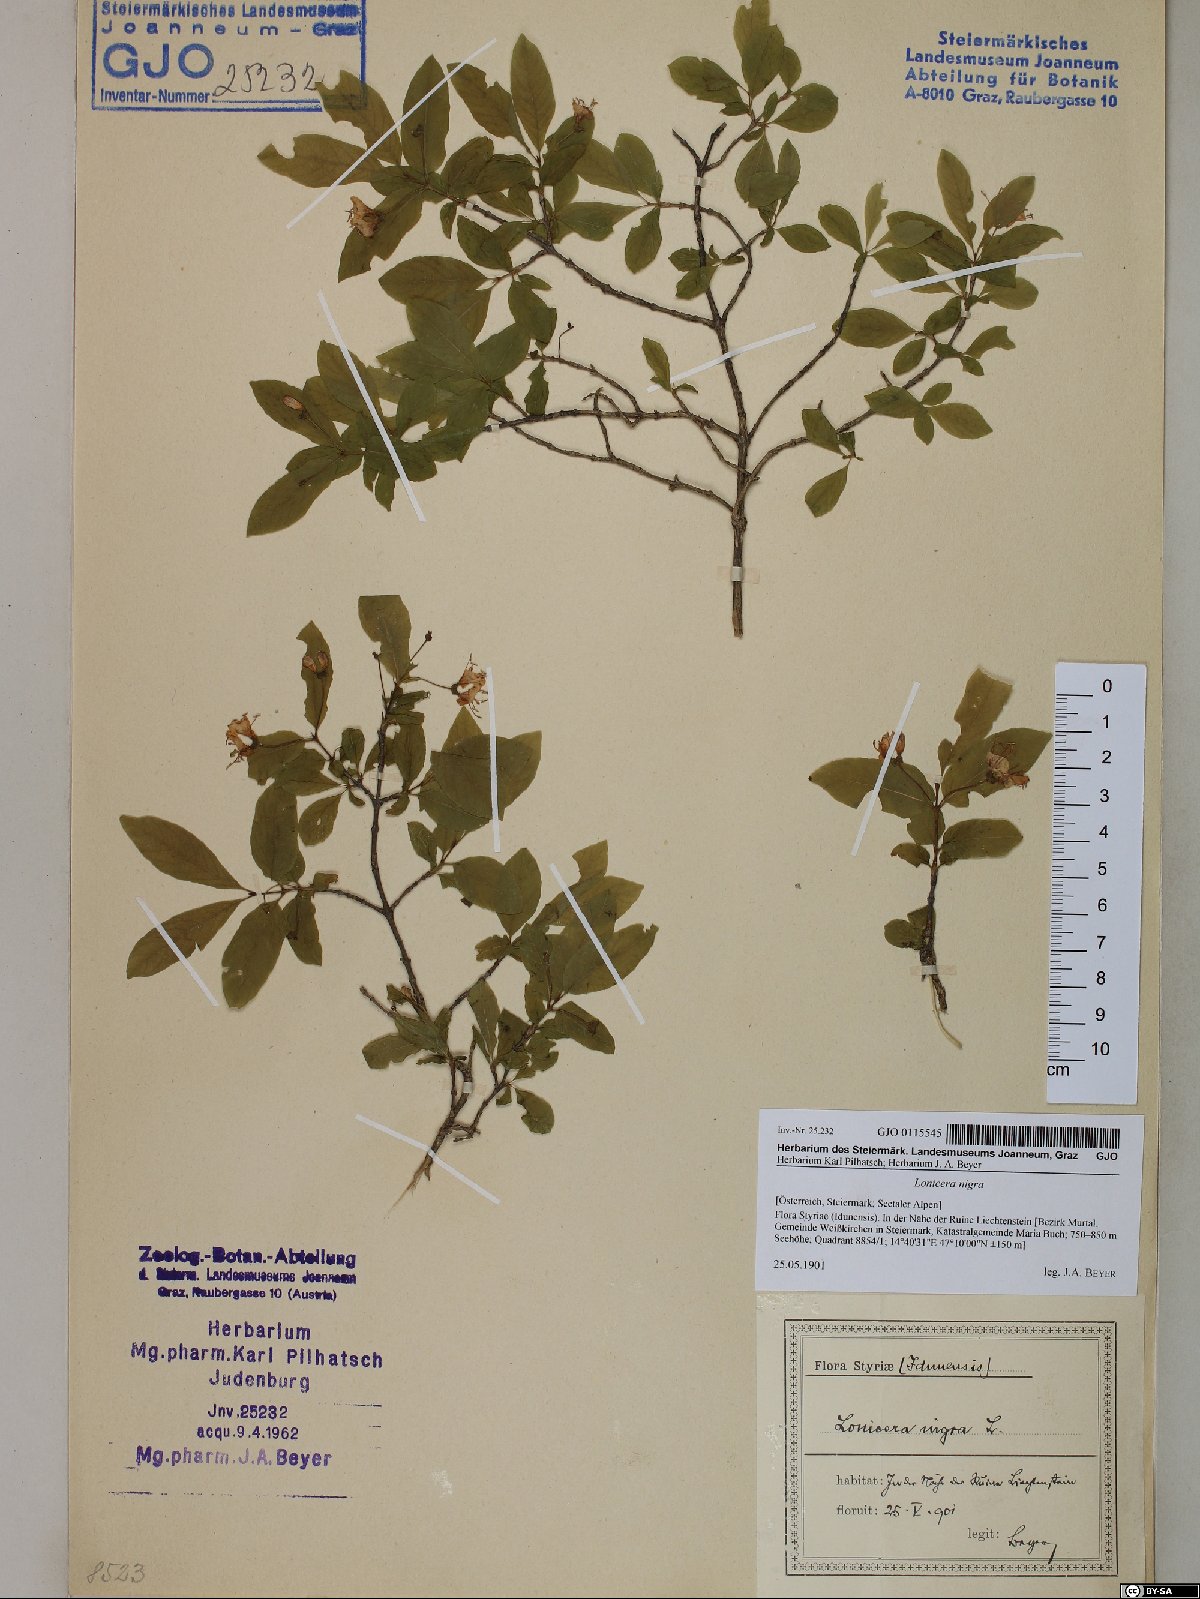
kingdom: Plantae
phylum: Tracheophyta
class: Magnoliopsida
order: Dipsacales
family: Caprifoliaceae
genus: Lonicera
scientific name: Lonicera nigra
